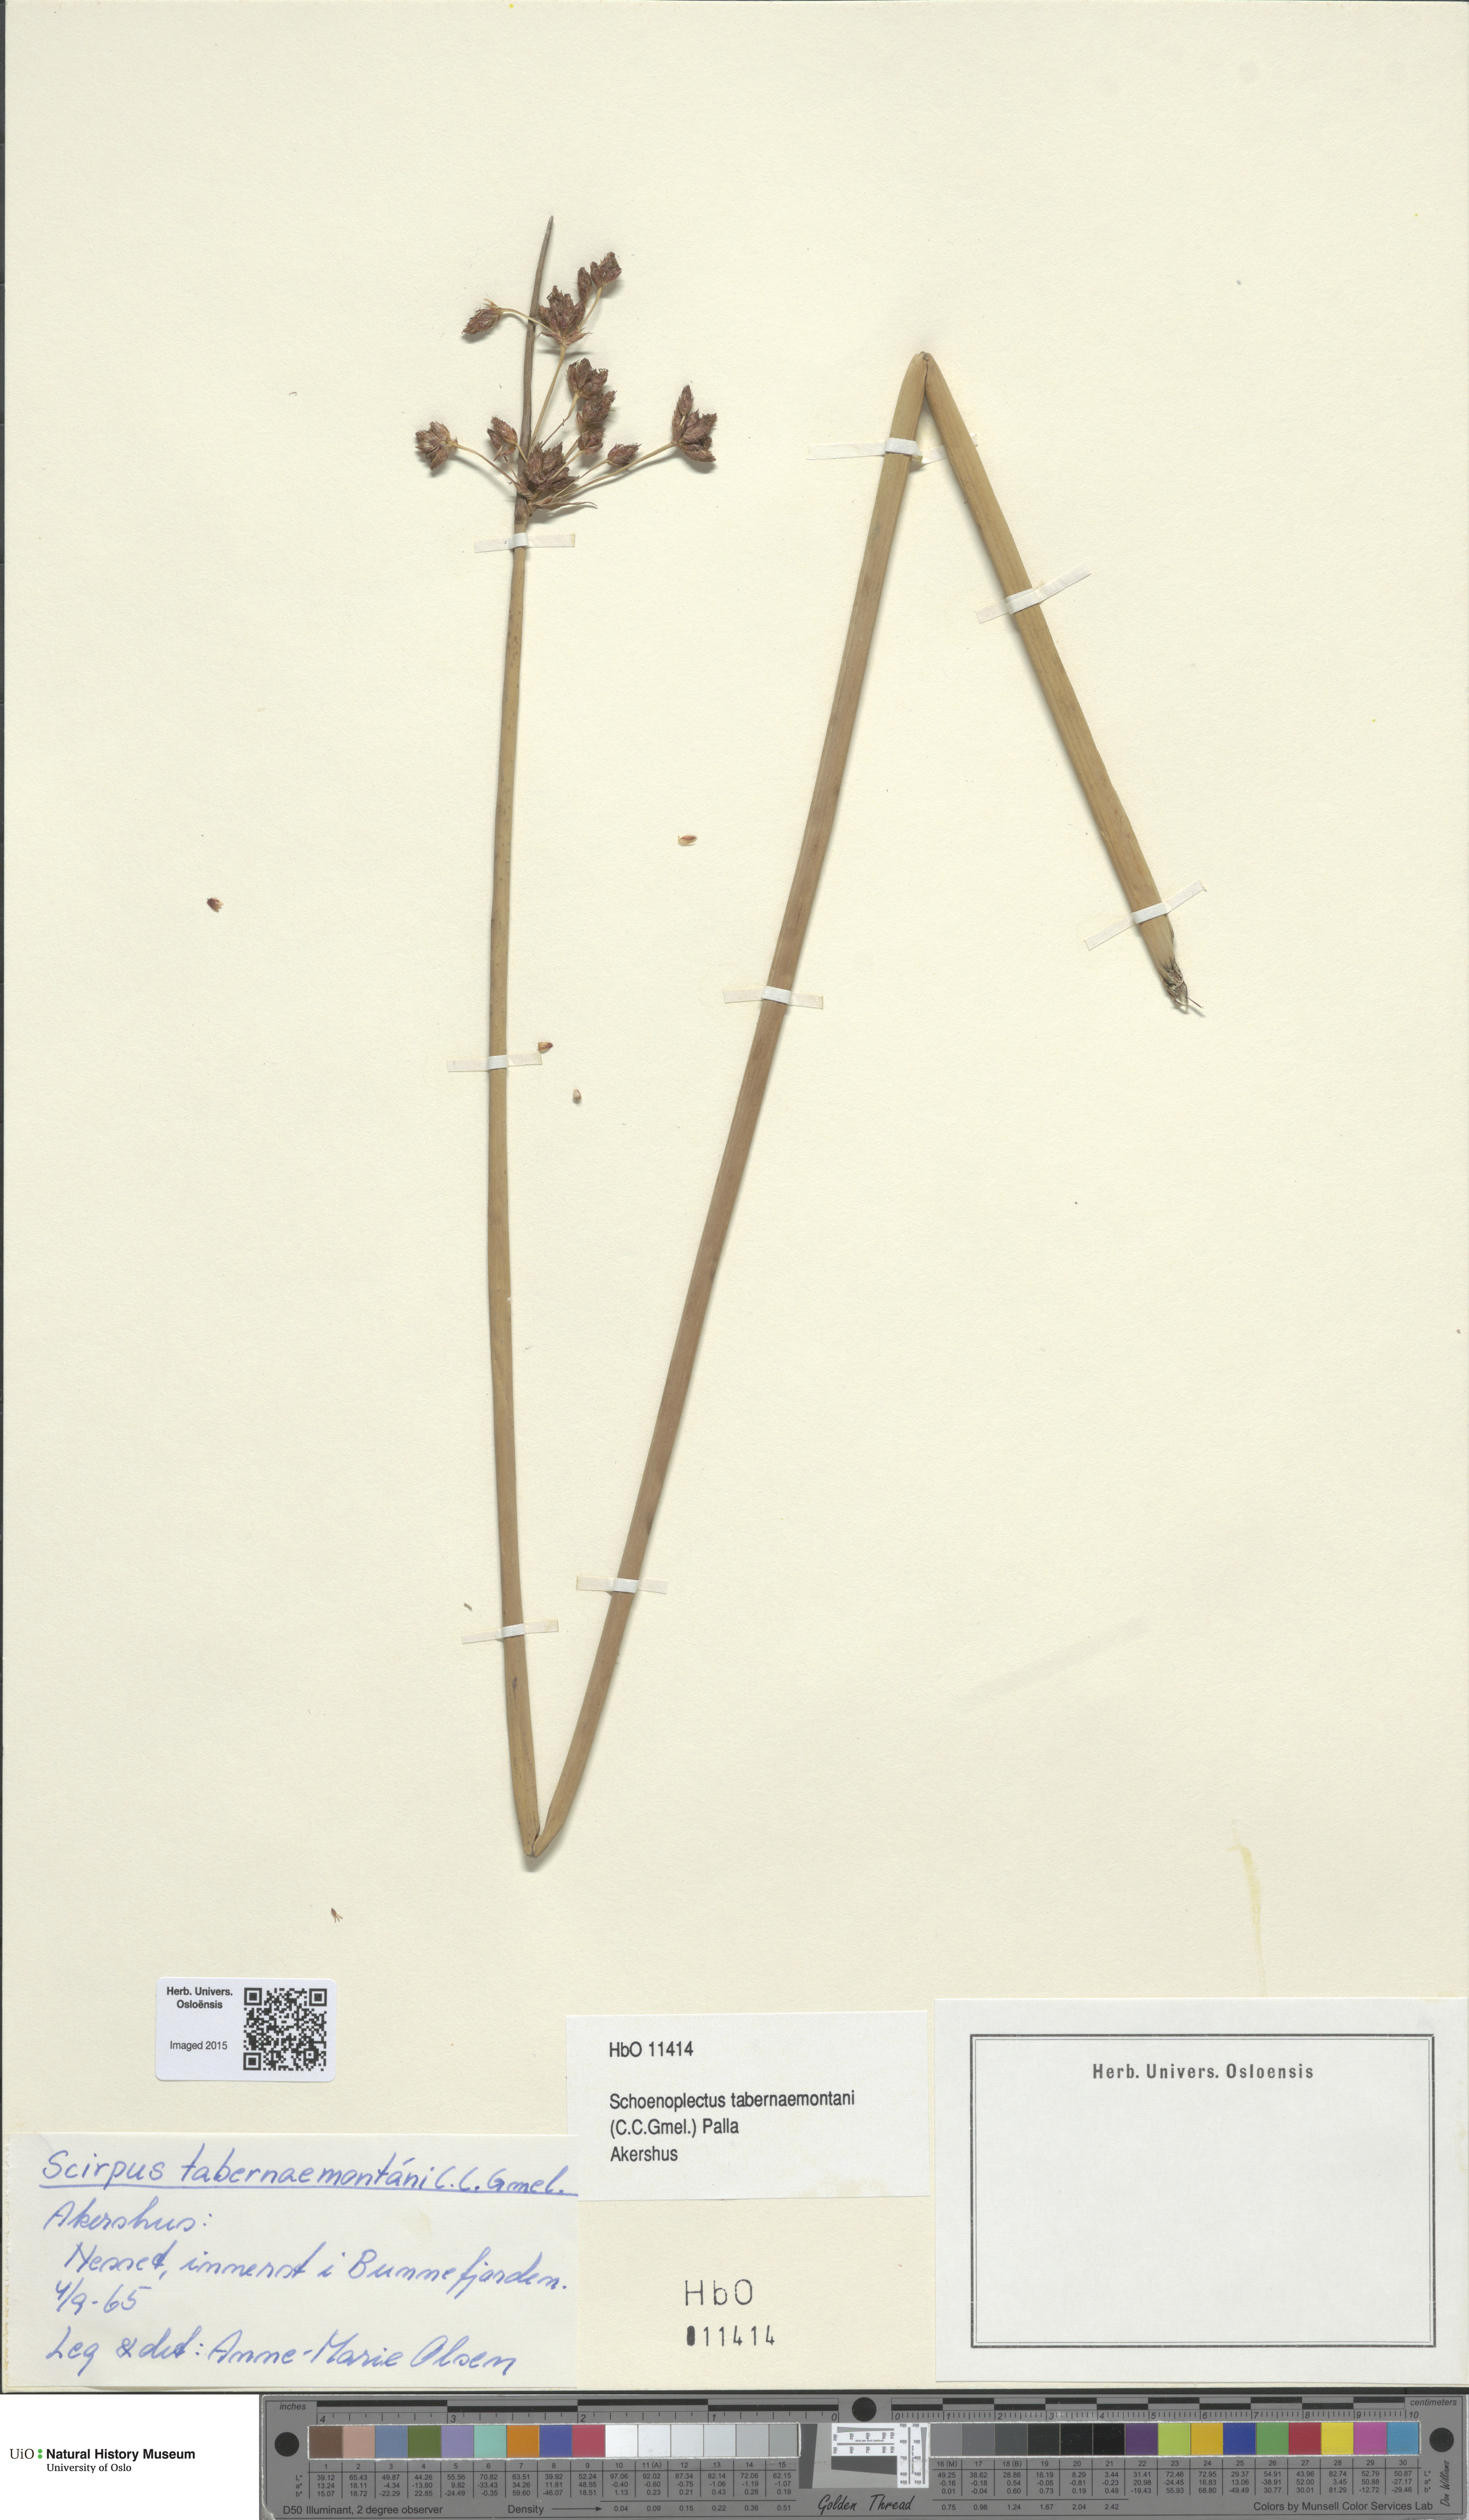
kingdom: Plantae
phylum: Tracheophyta
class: Liliopsida
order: Poales
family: Cyperaceae
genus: Schoenoplectus
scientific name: Schoenoplectus tabernaemontani
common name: Grey club-rush
